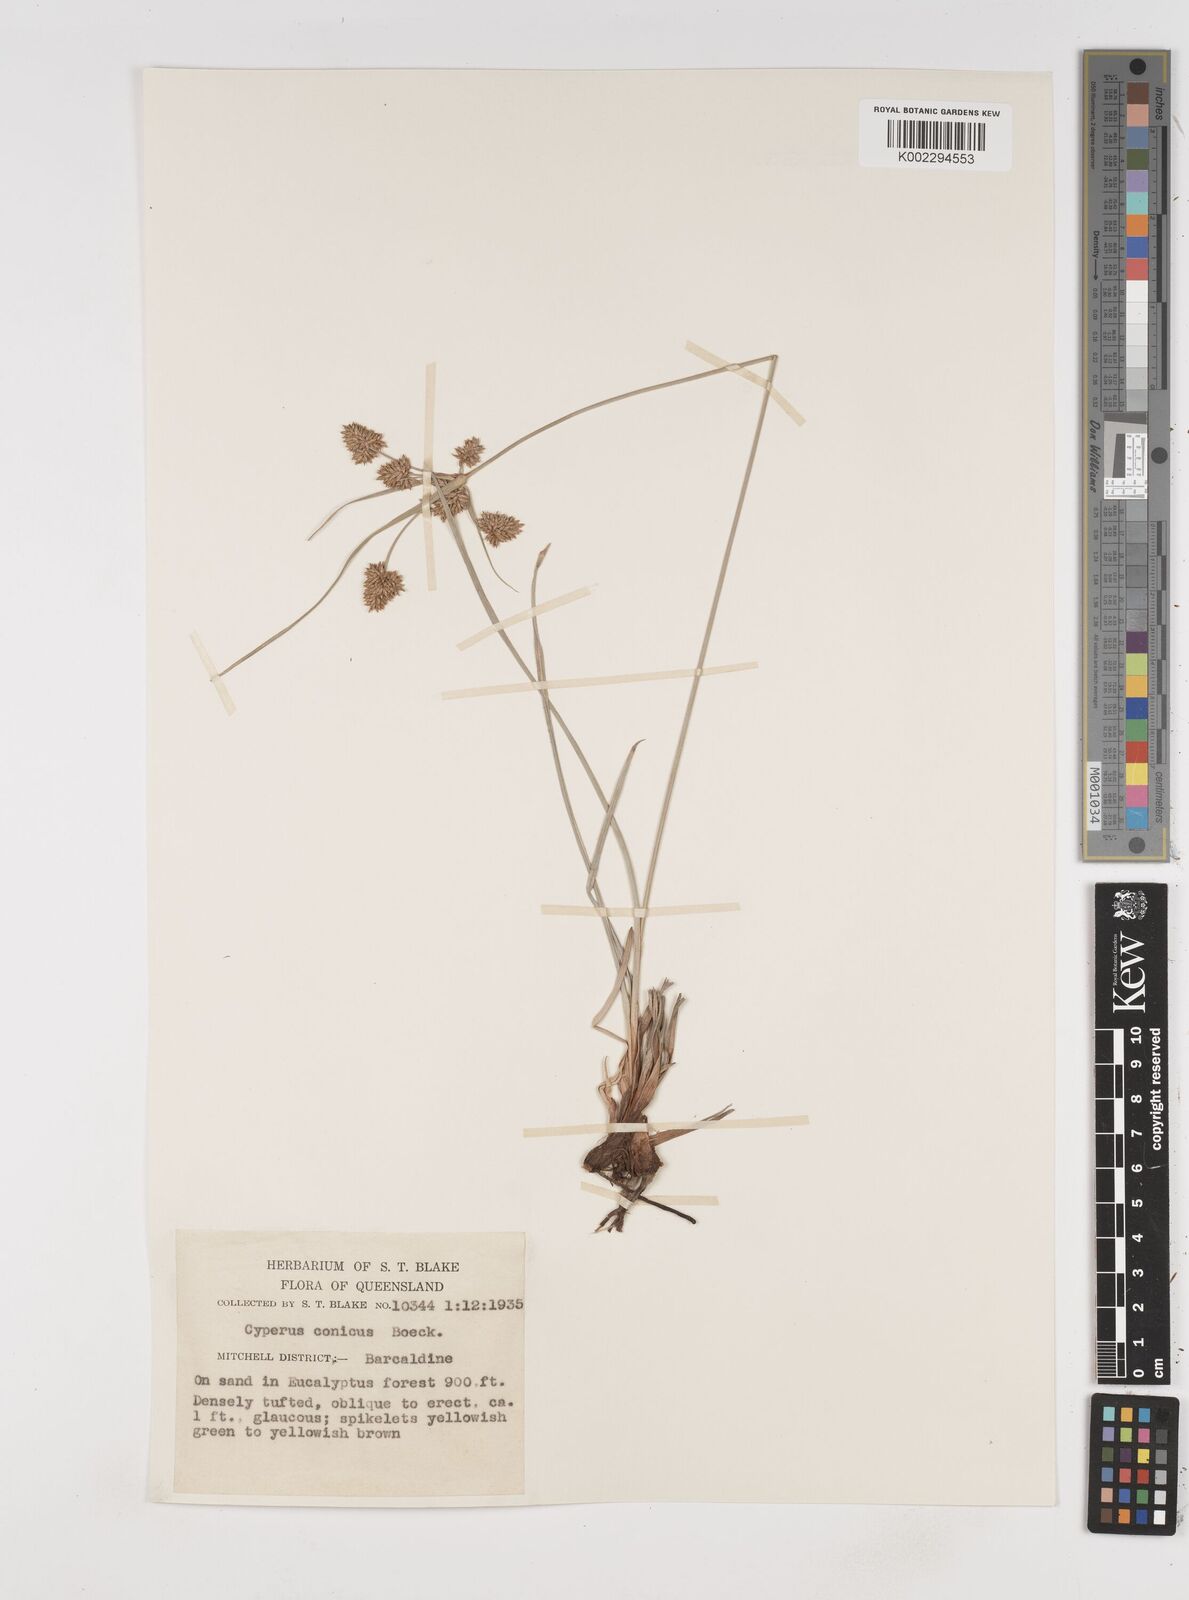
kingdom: Plantae
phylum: Tracheophyta
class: Liliopsida
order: Poales
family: Cyperaceae
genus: Cyperus
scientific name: Cyperus conicus
